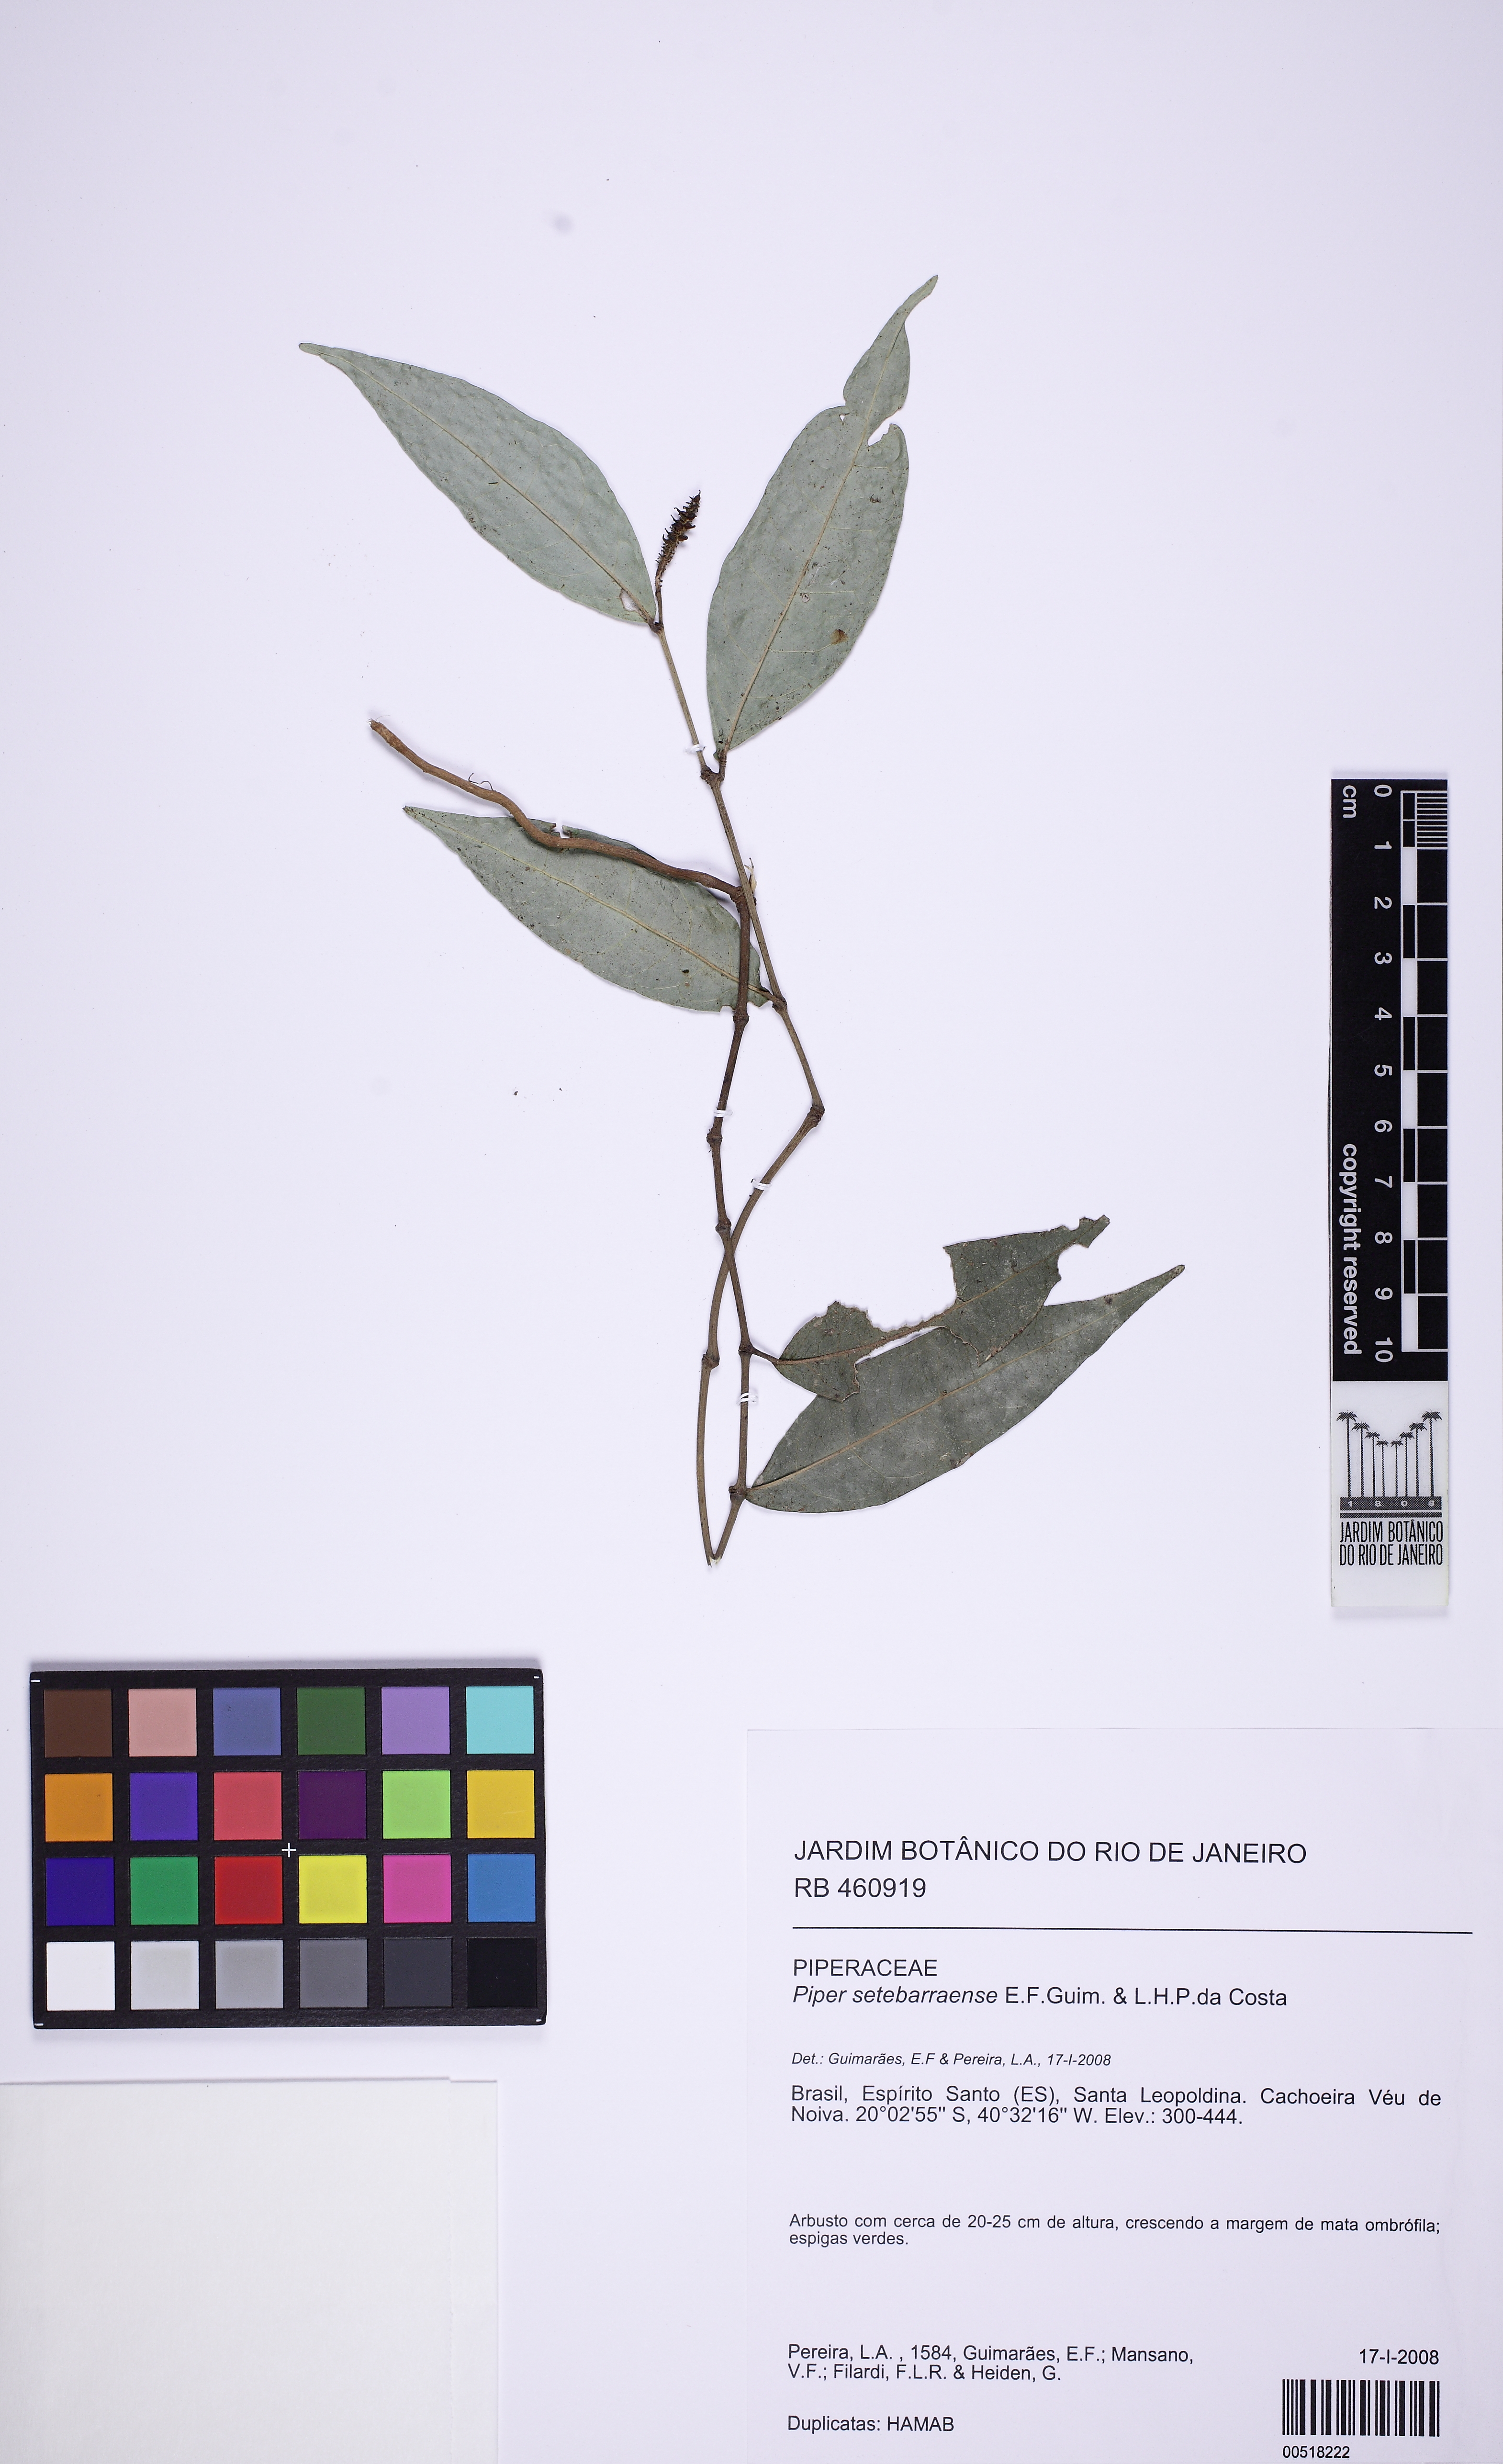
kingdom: Plantae
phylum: Tracheophyta
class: Magnoliopsida
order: Piperales
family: Piperaceae
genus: Piper
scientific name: Piper setebarraense
